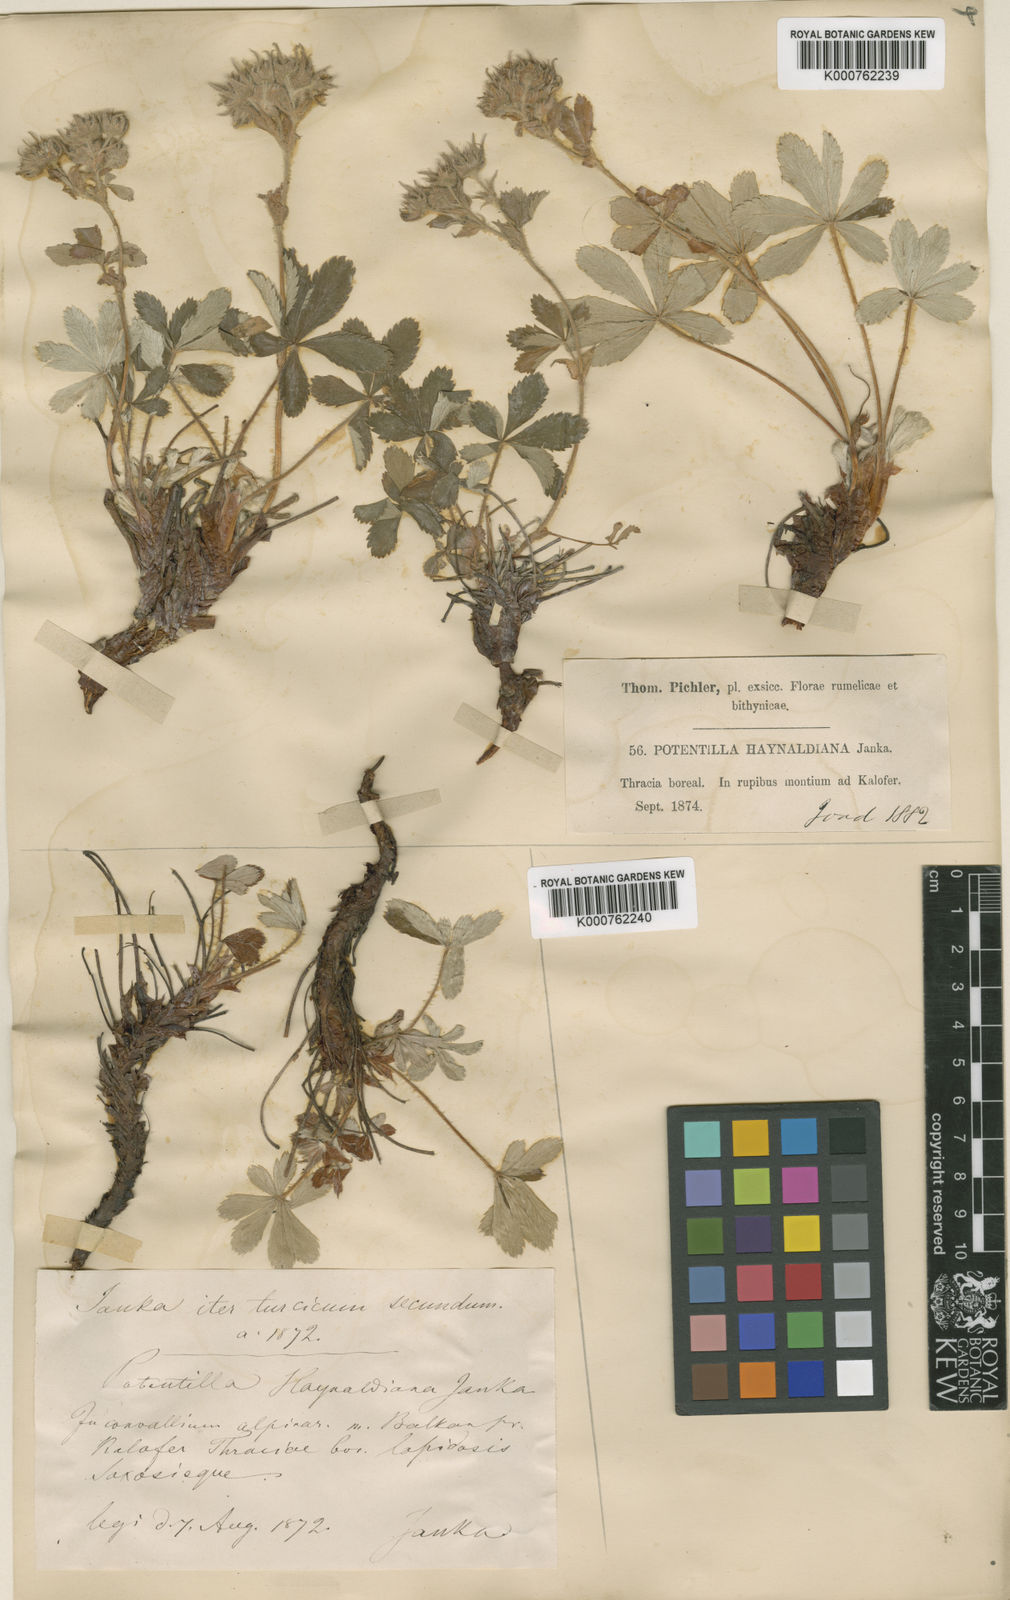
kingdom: Plantae
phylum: Tracheophyta
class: Magnoliopsida
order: Rosales
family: Rosaceae
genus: Potentilla
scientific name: Potentilla haynaldiana
